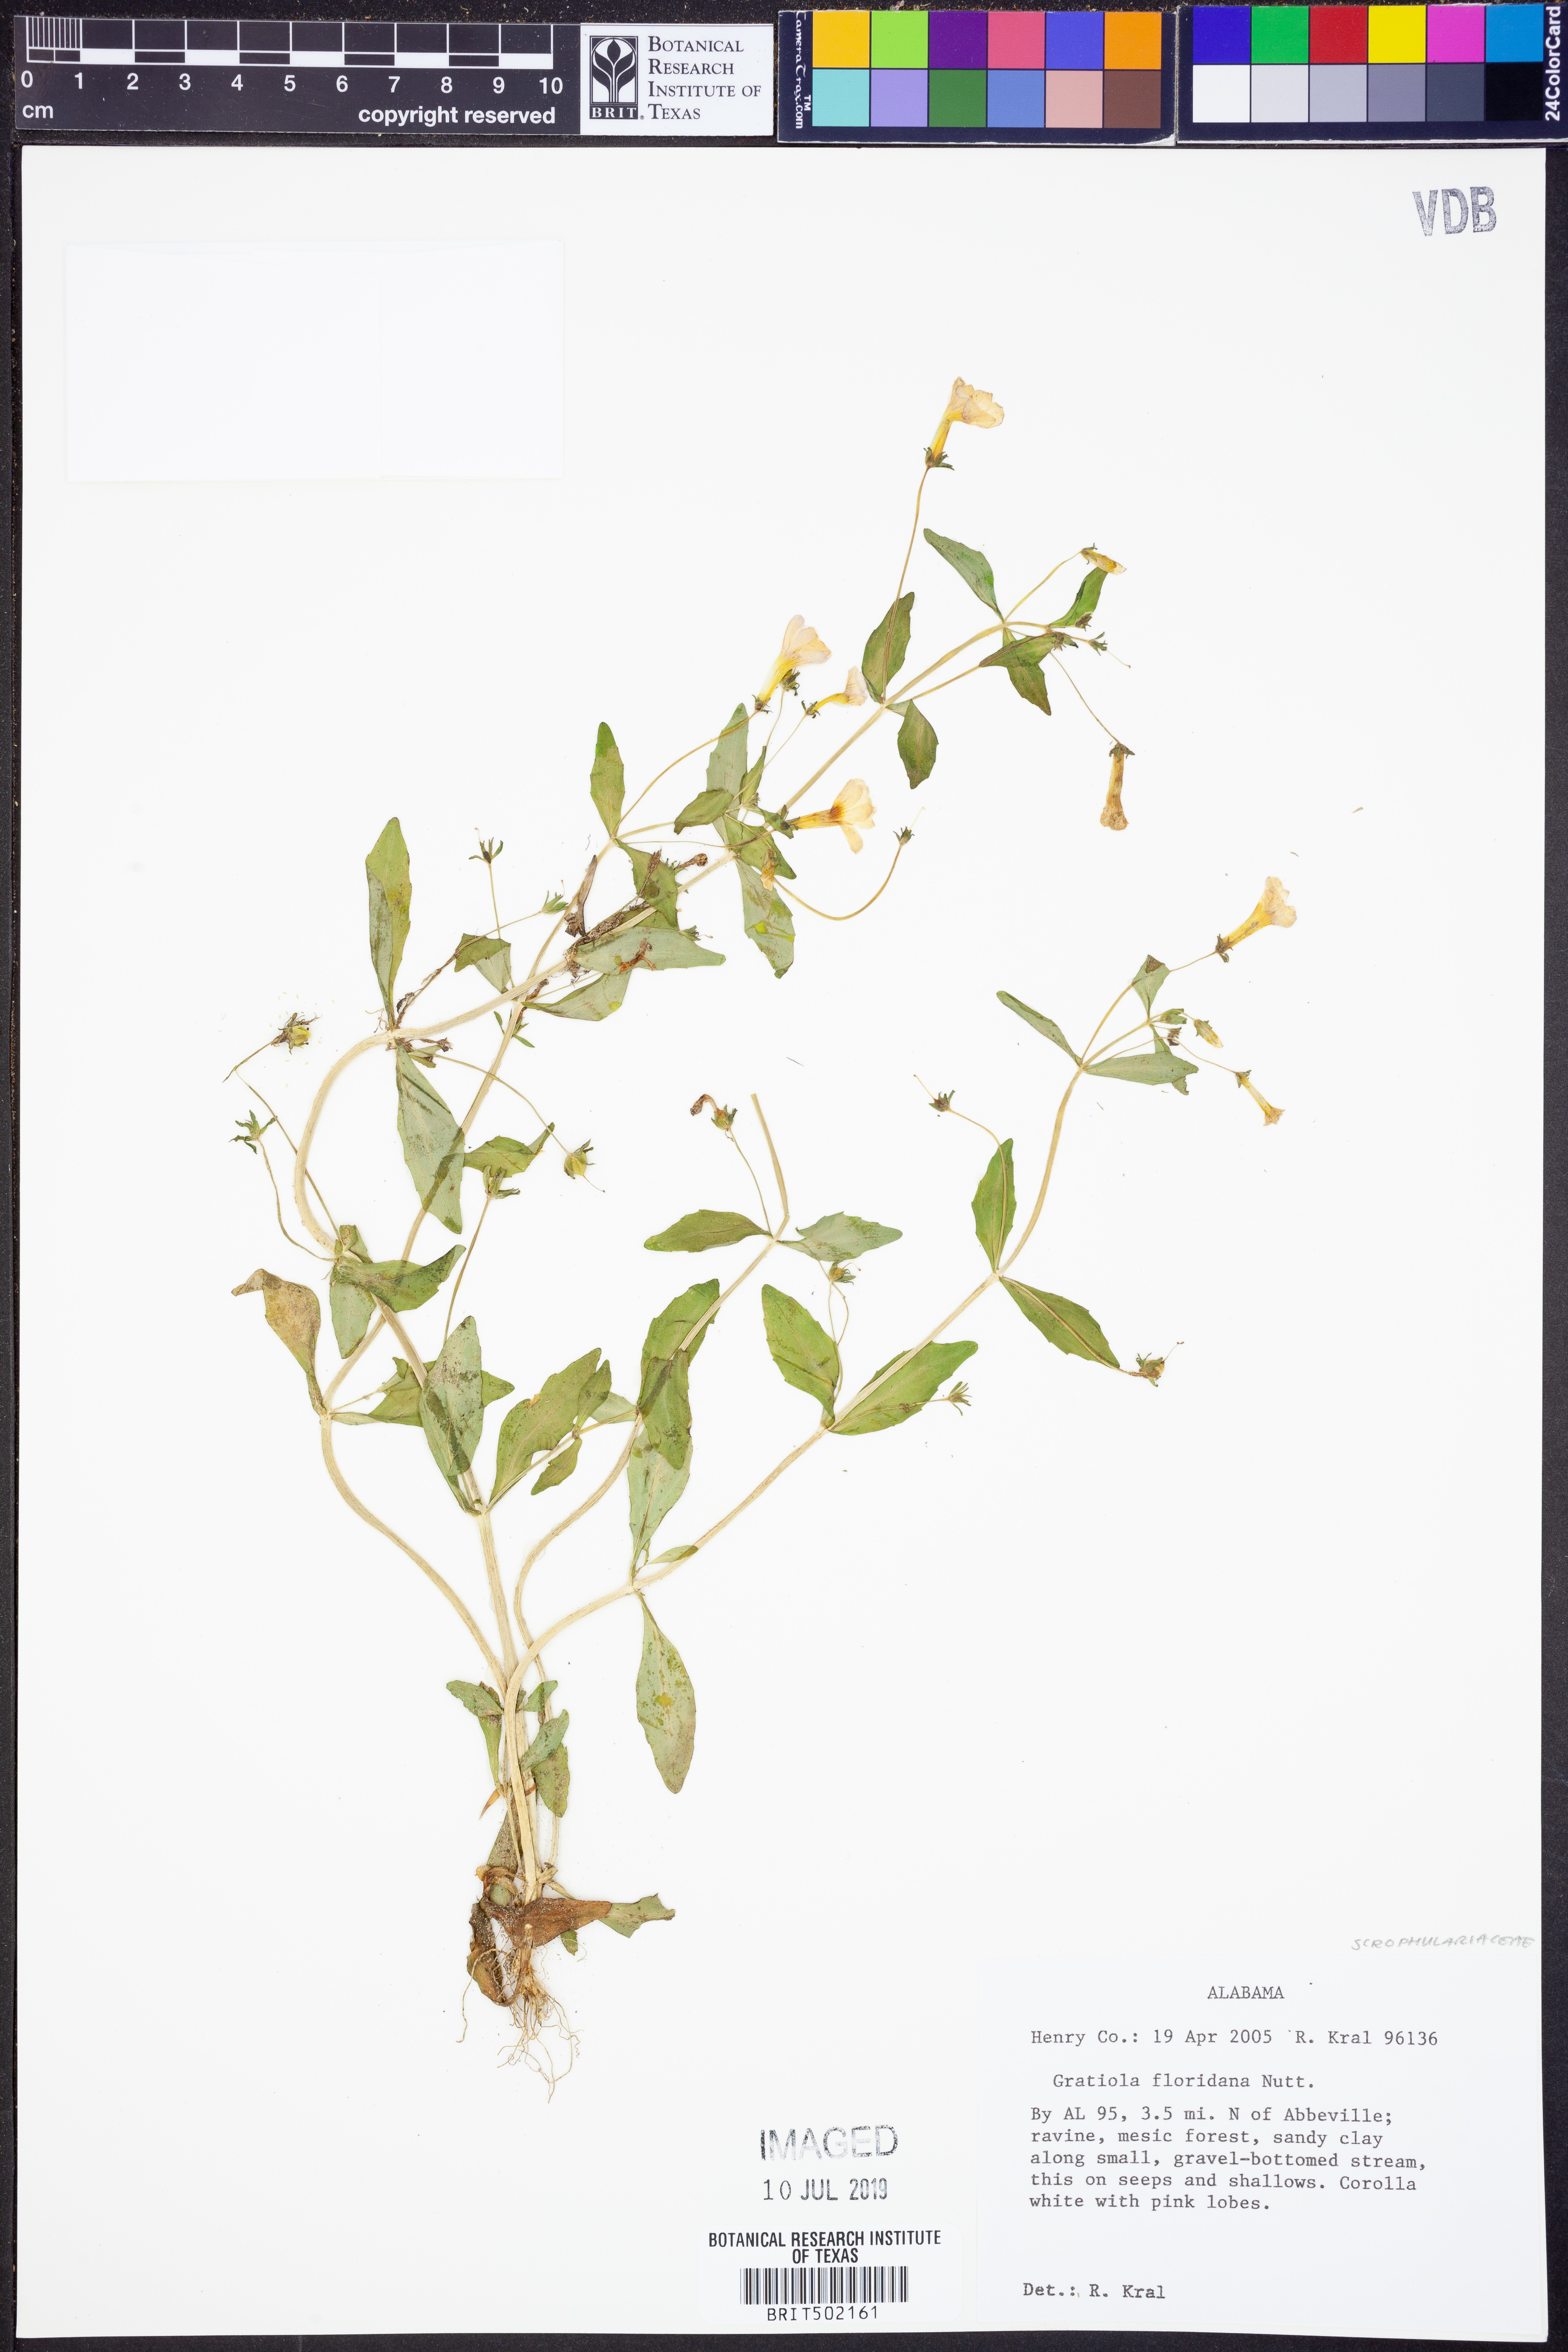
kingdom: Plantae
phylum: Tracheophyta
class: Magnoliopsida
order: Lamiales
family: Plantaginaceae
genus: Gratiola
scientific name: Gratiola floridana
